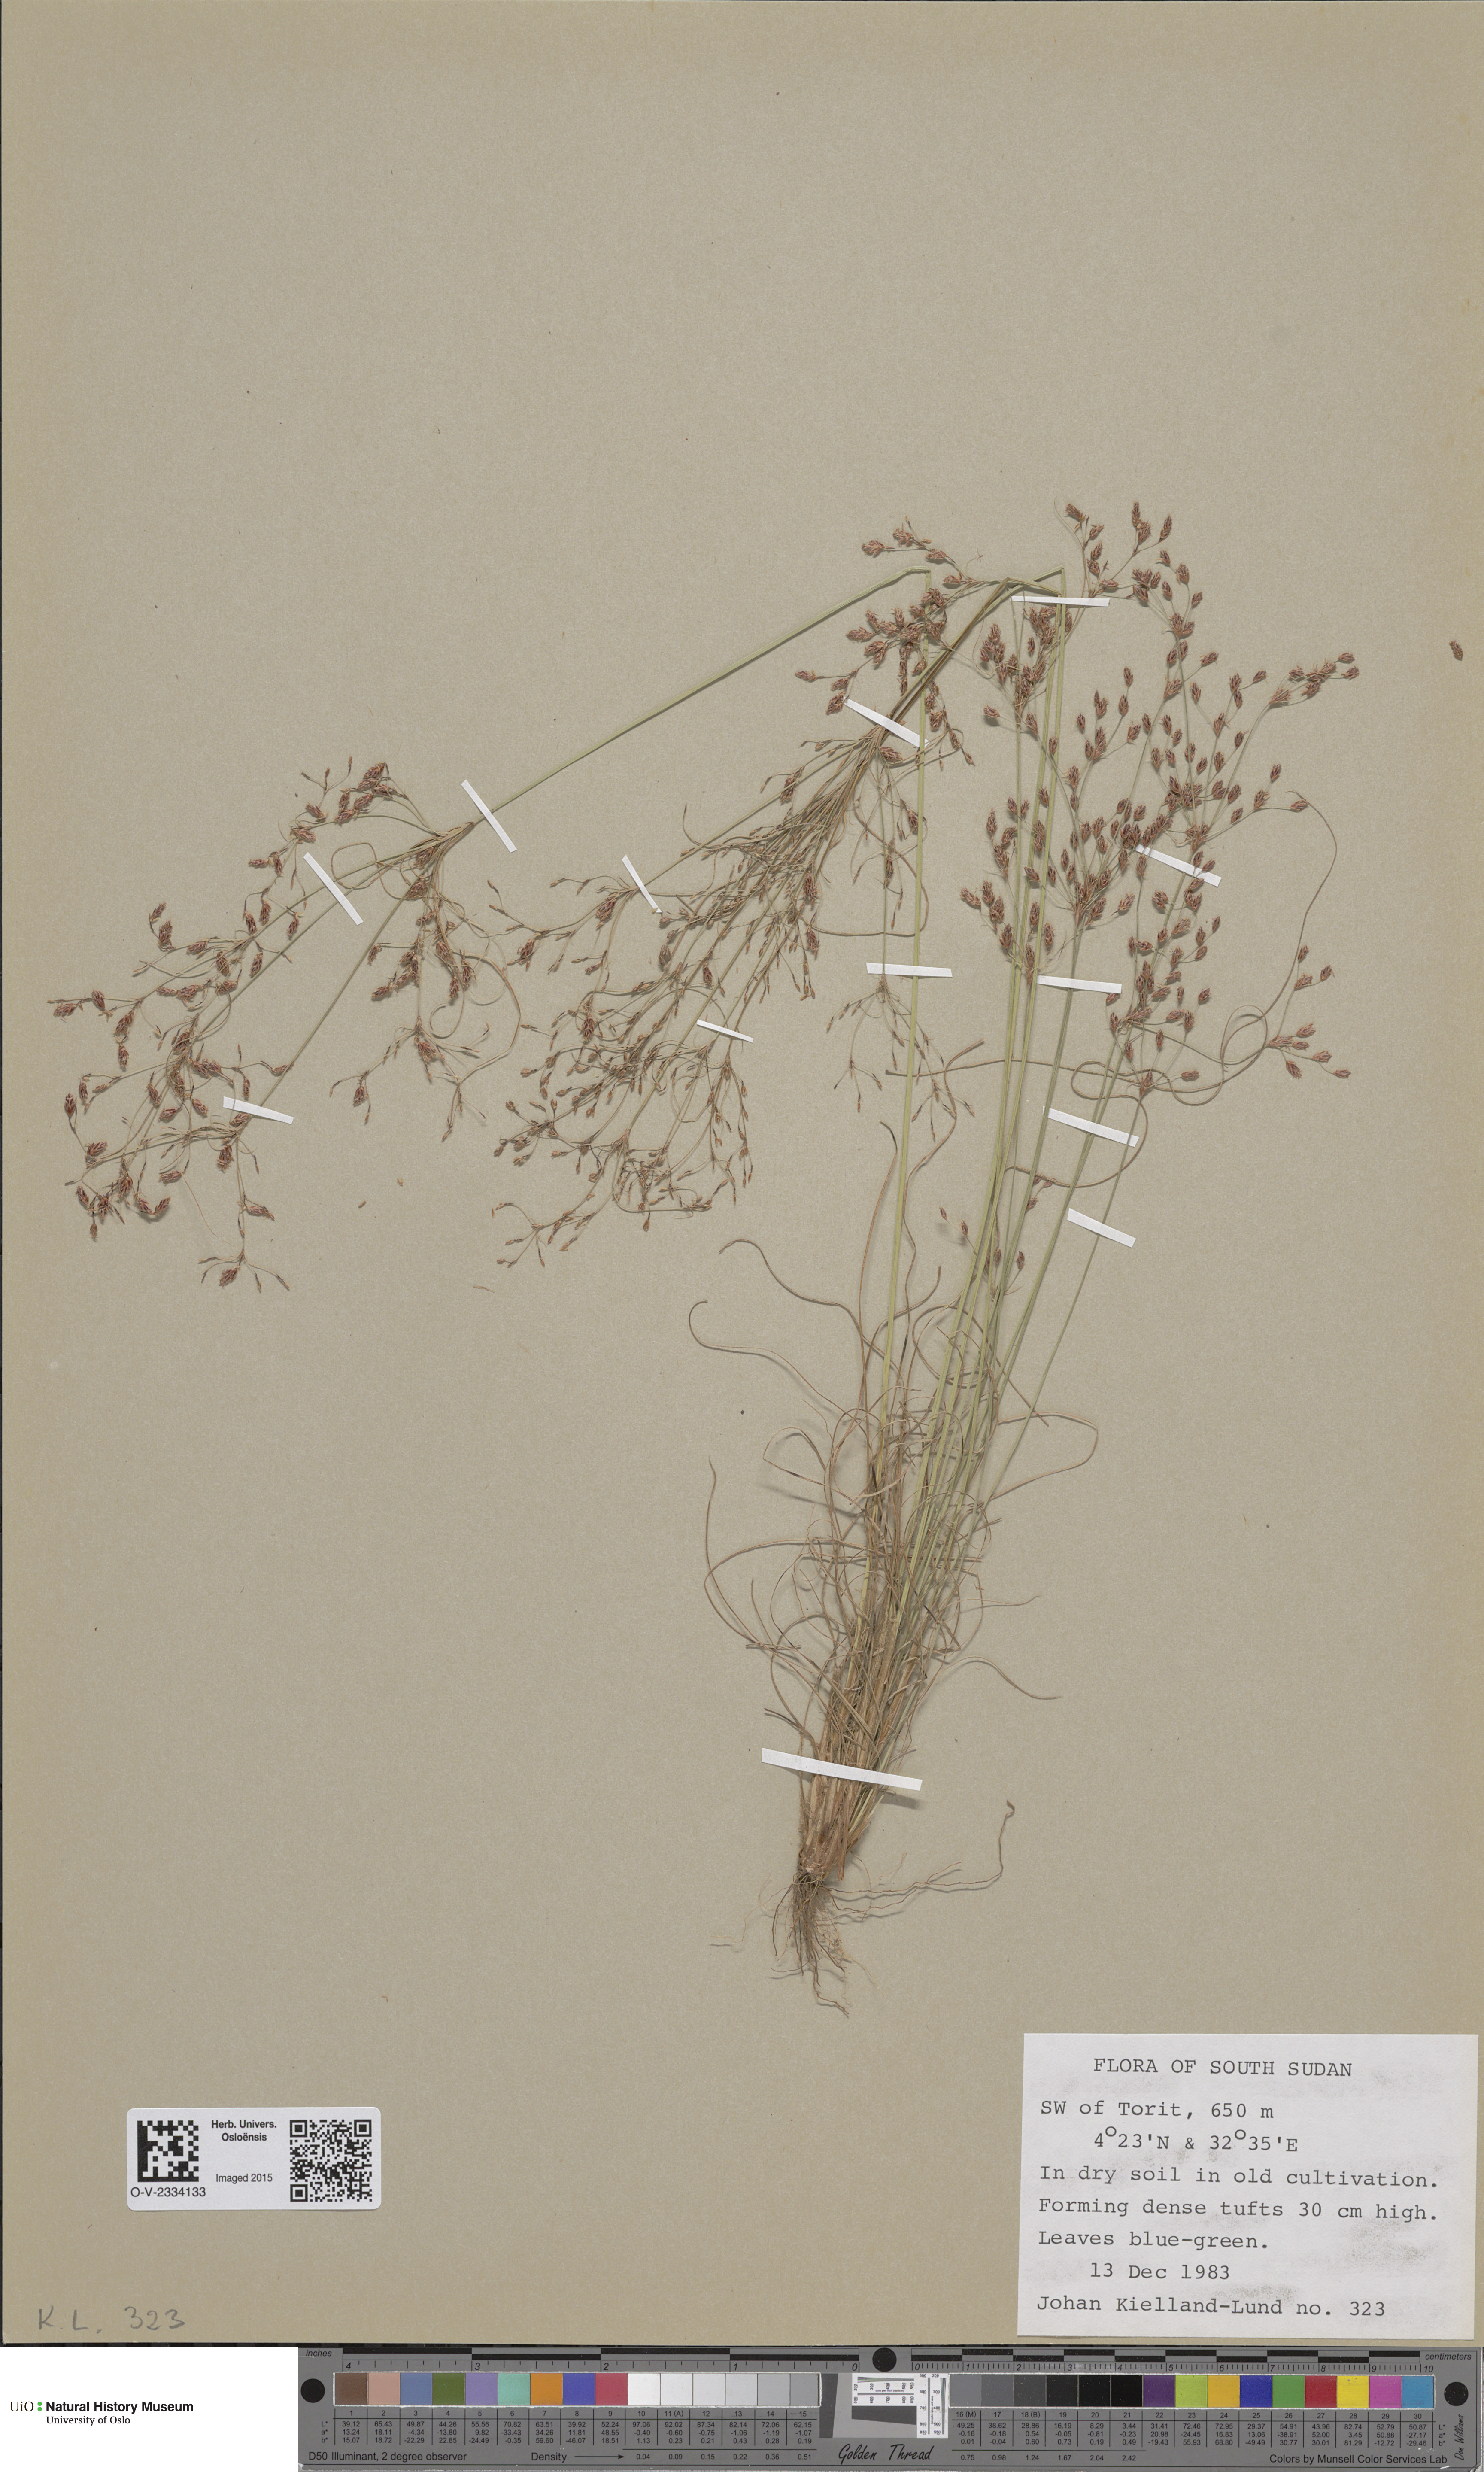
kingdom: Plantae
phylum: Tracheophyta
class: Liliopsida
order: Poales
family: Cyperaceae
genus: Eriophorum
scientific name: Eriophorum scheuchzeri
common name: Scheuchzer's cottongrass
